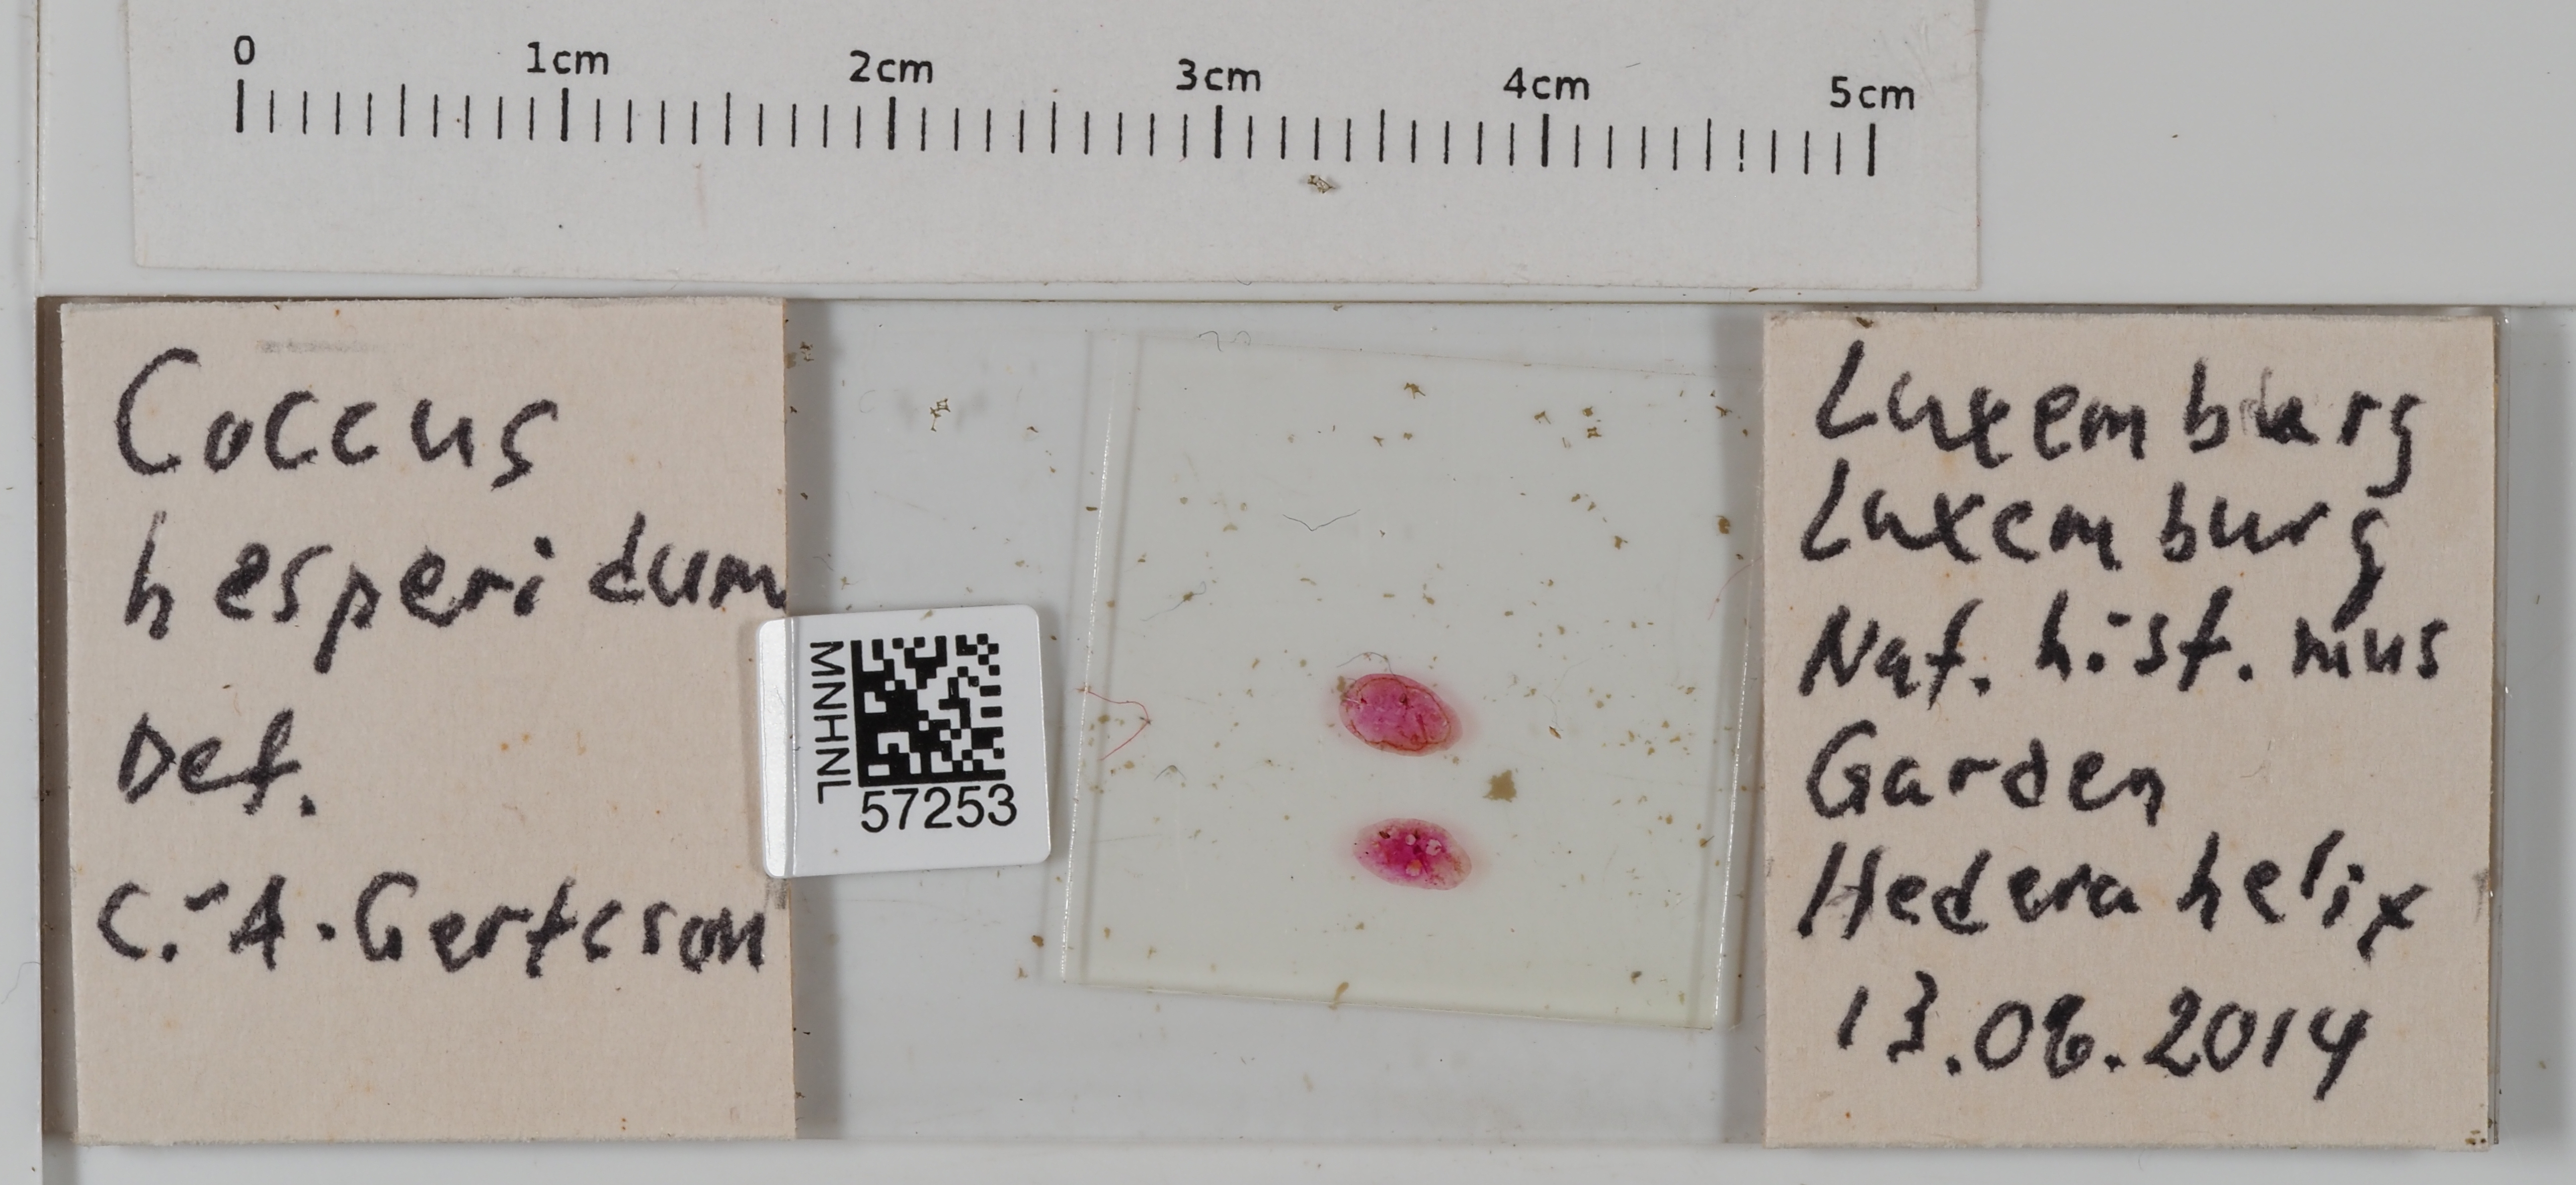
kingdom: Animalia
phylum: Arthropoda
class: Insecta
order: Hemiptera
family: Coccidae
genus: Coccus
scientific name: Coccus hesperidum
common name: Soft brown scale
